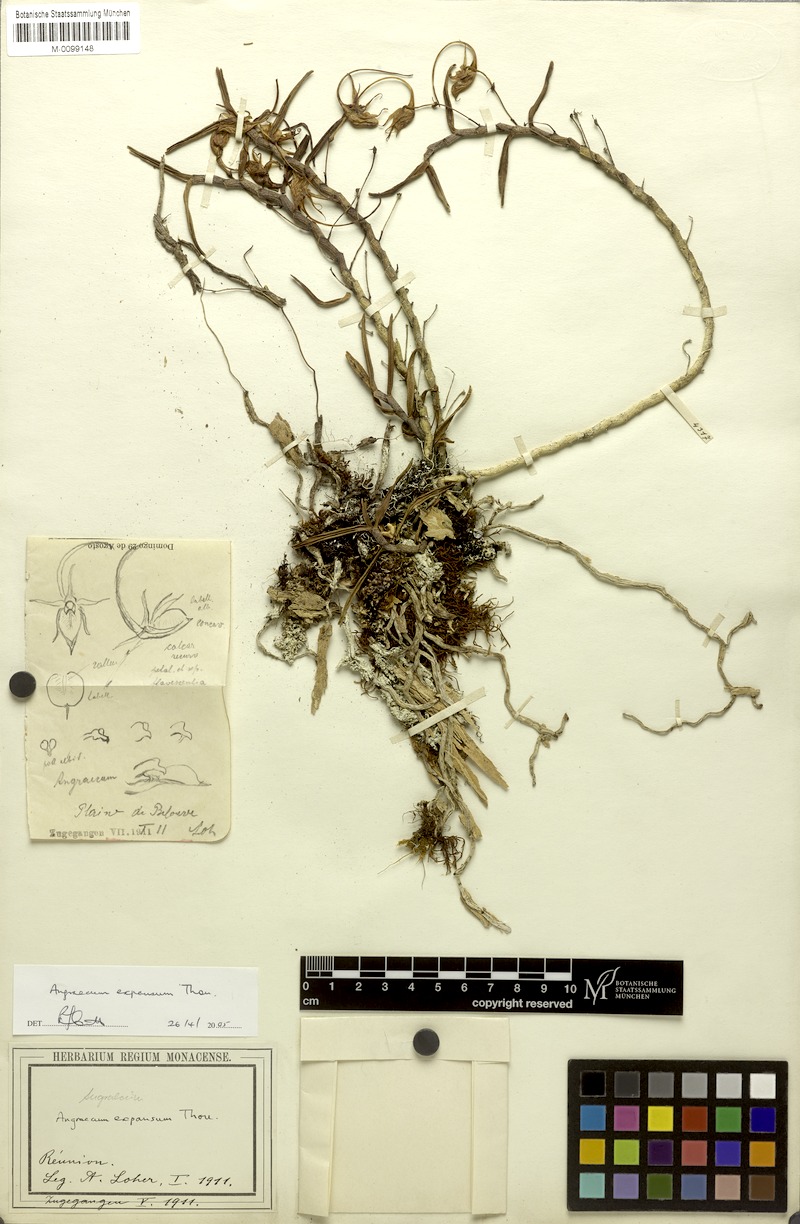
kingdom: Plantae
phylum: Tracheophyta
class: Liliopsida
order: Asparagales
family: Orchidaceae
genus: Angraecum
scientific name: Angraecum expansum
